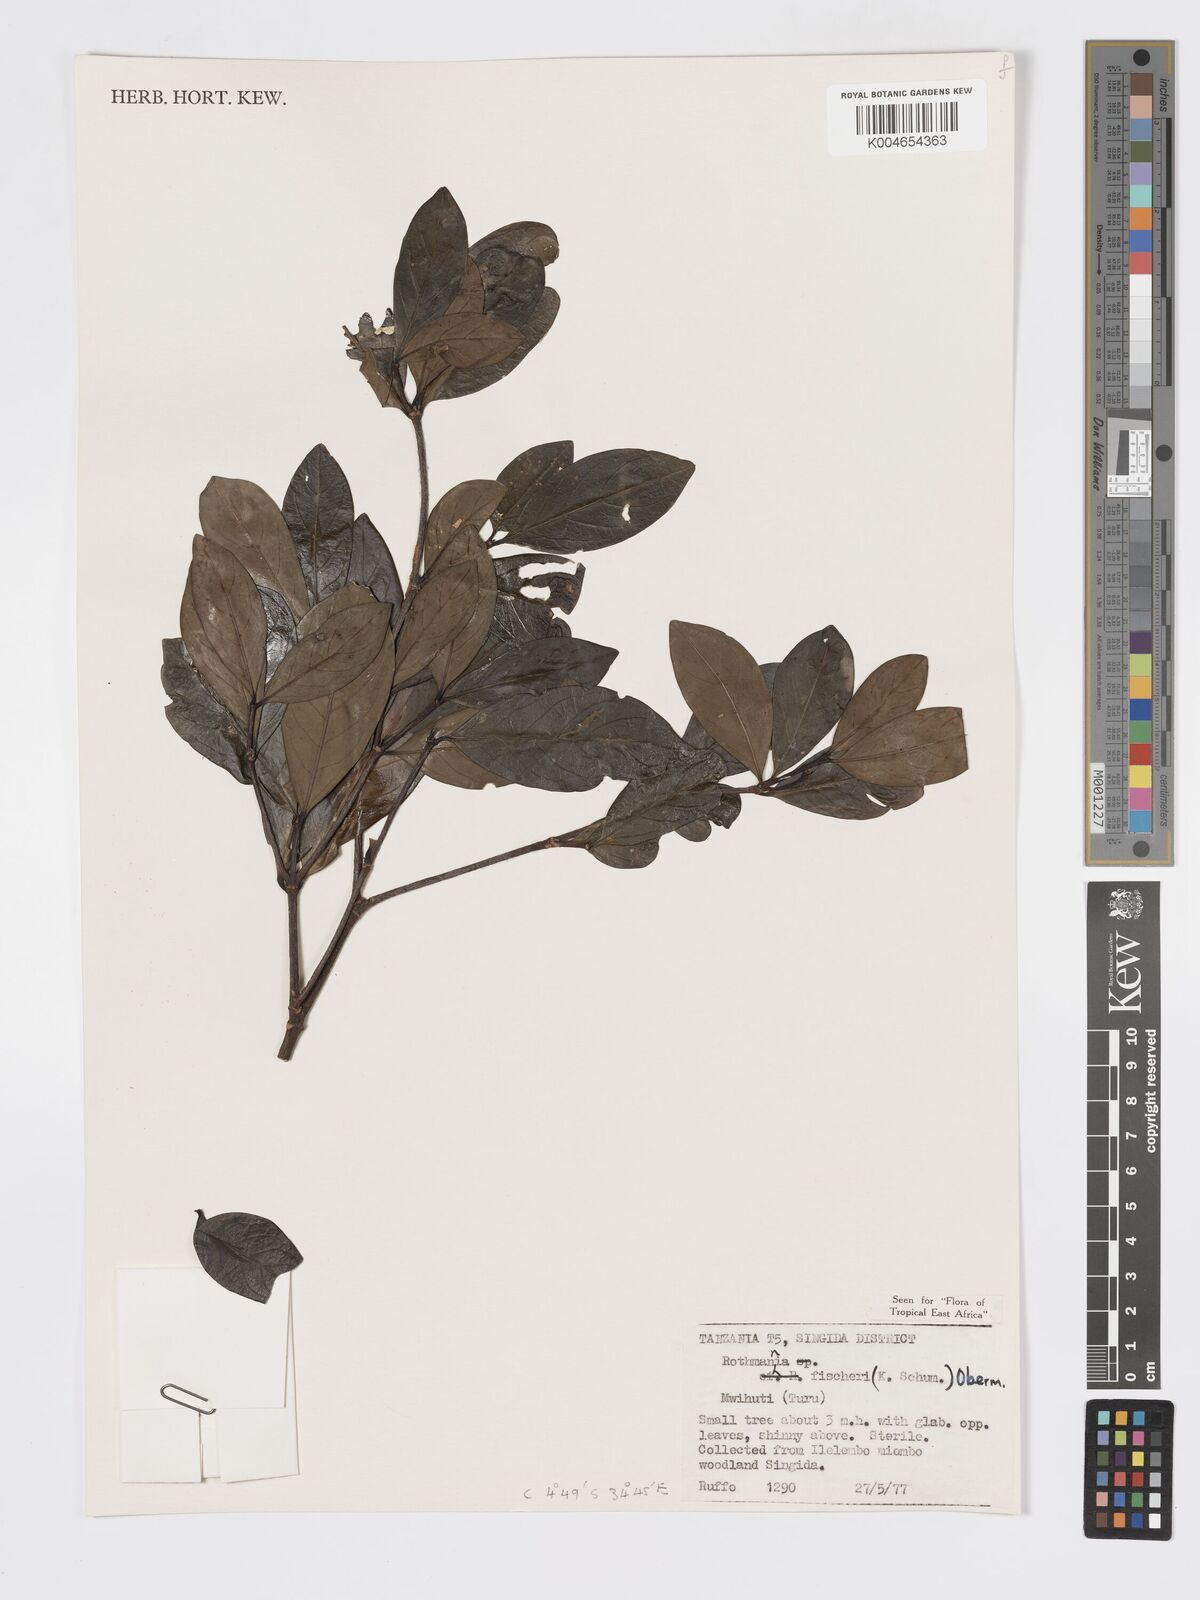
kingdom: Plantae
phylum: Tracheophyta
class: Magnoliopsida
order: Gentianales
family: Rubiaceae
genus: Rothmannia
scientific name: Rothmannia fischeri
